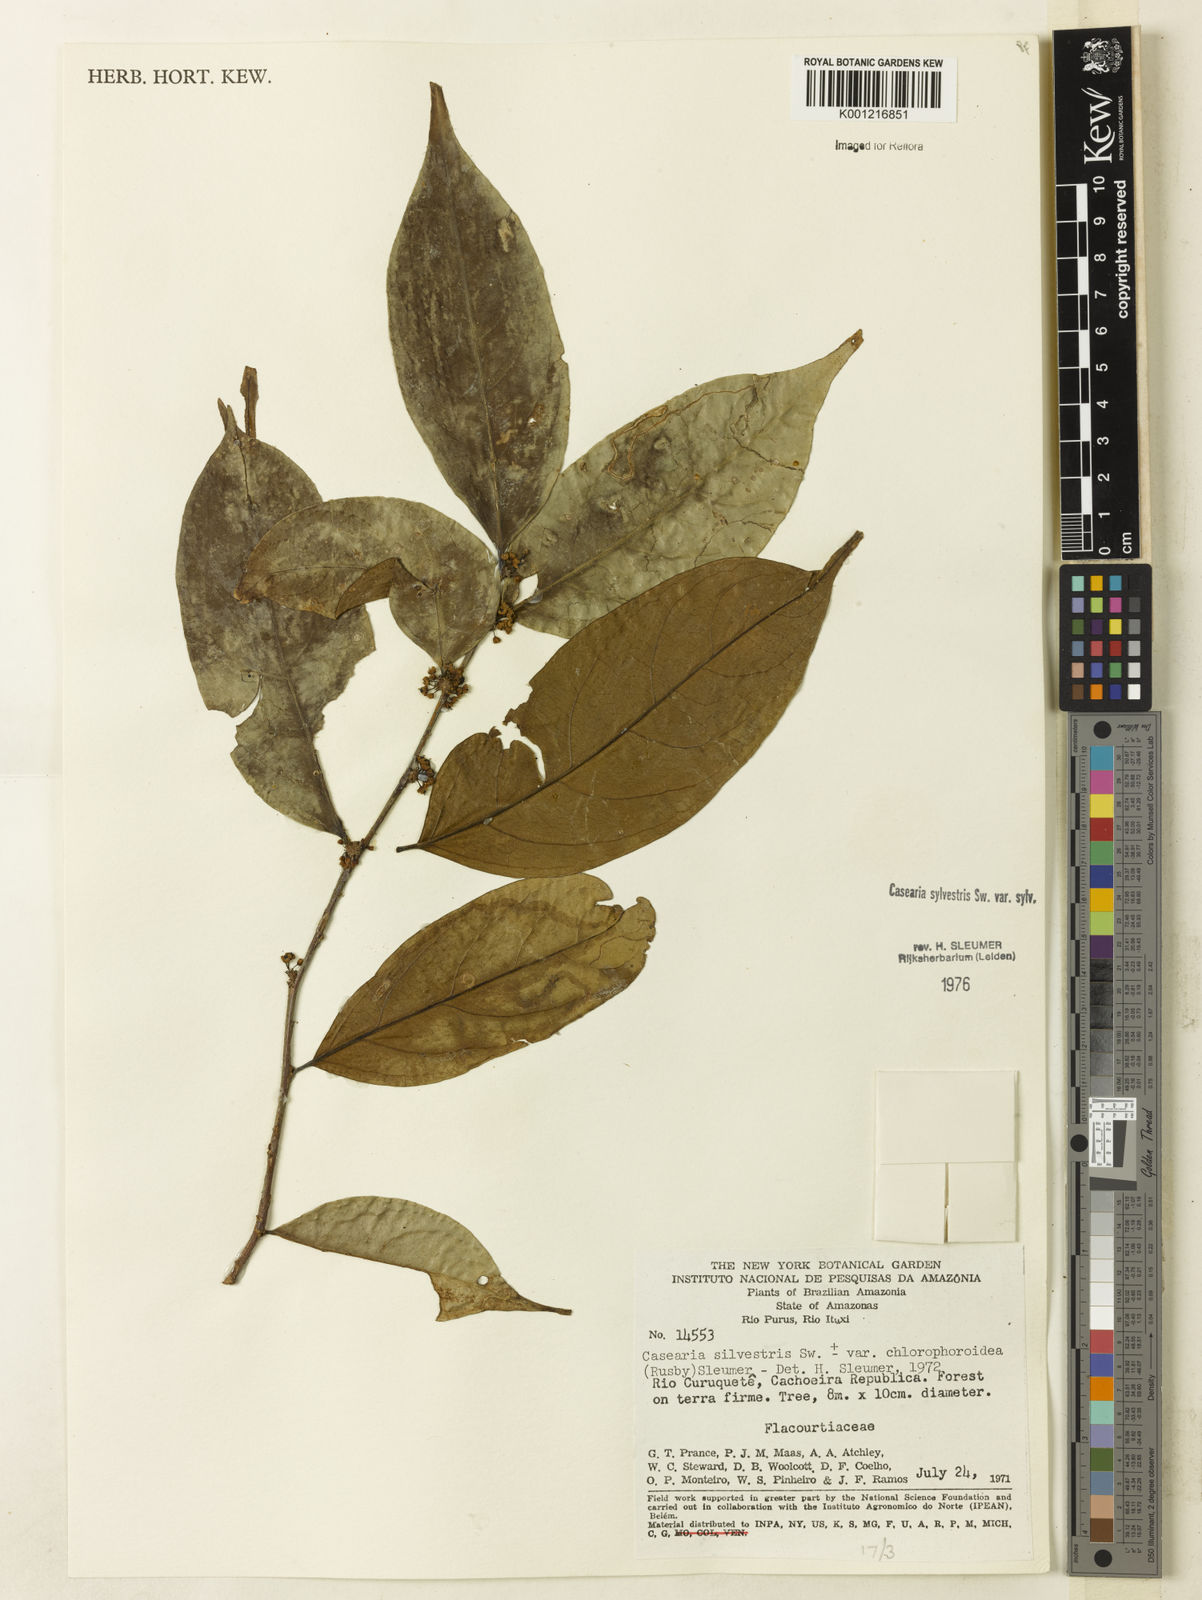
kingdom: Plantae
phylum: Tracheophyta
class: Magnoliopsida
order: Malpighiales
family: Salicaceae
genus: Casearia
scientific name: Casearia sylvestris
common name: Wild sage
